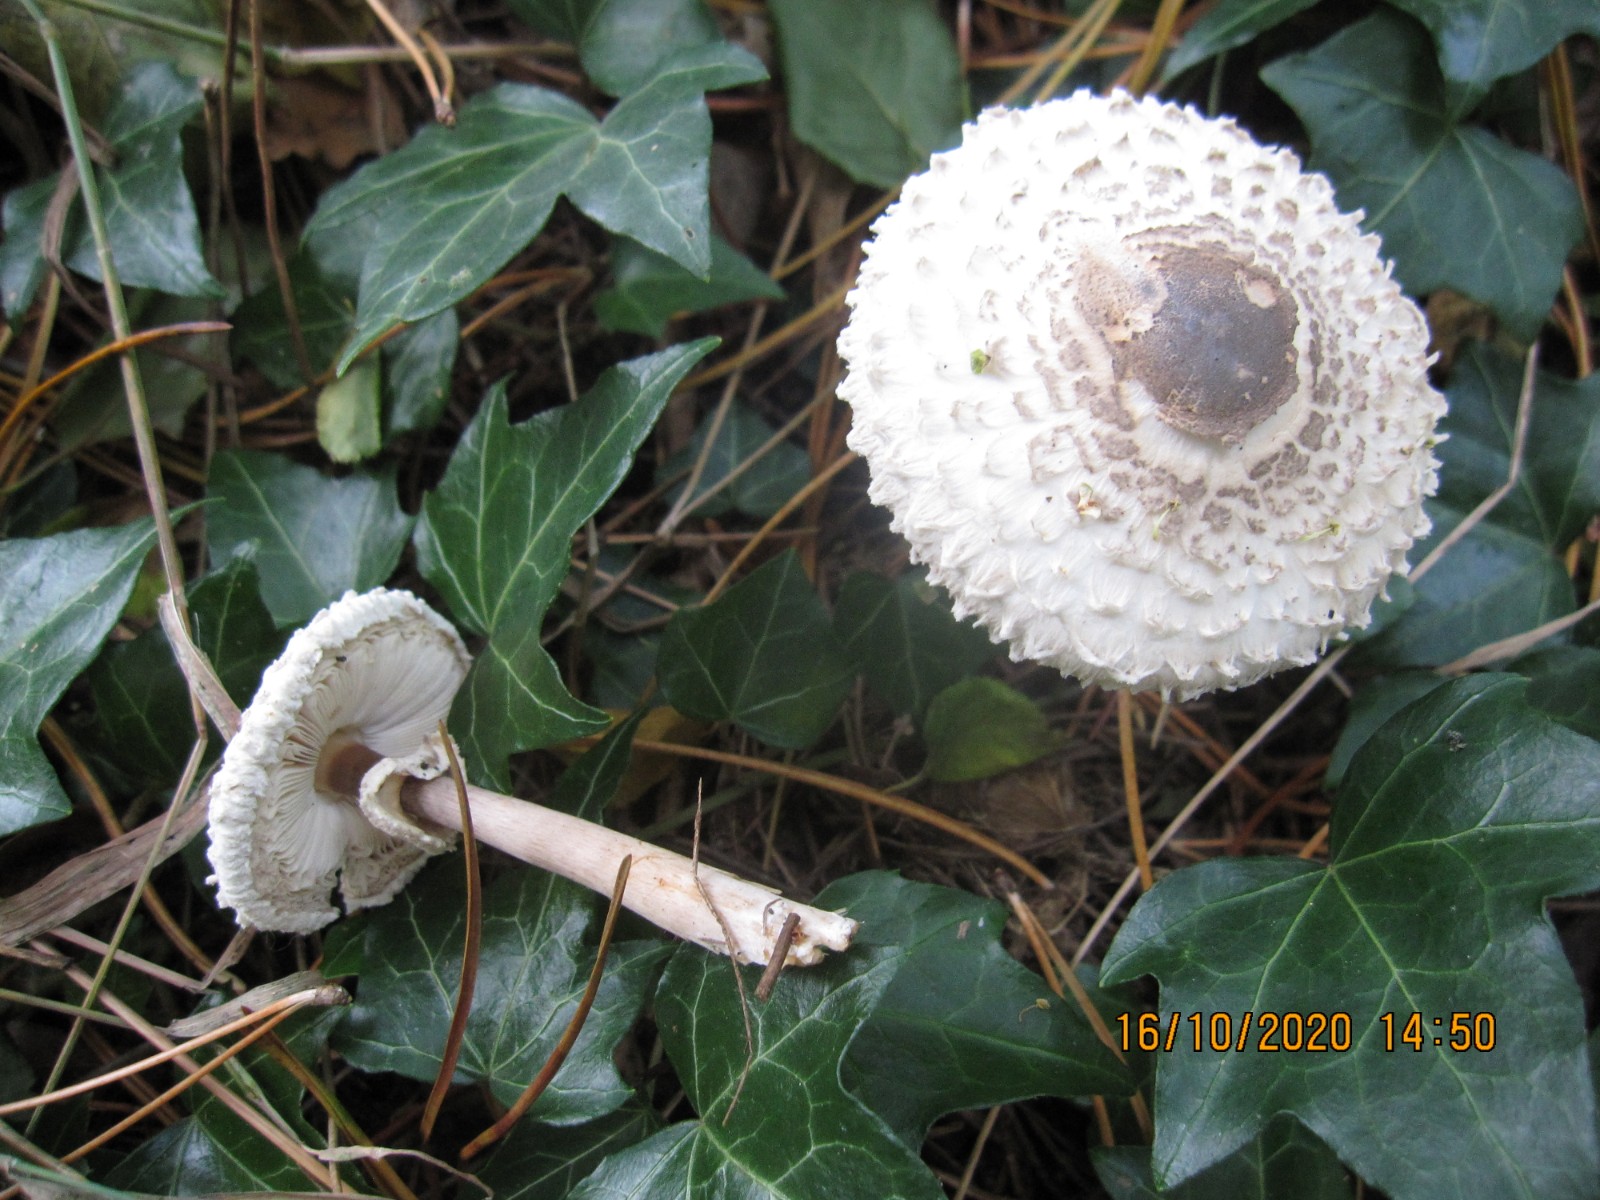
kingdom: Fungi
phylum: Basidiomycota
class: Agaricomycetes
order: Agaricales
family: Agaricaceae
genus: Leucoagaricus
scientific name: Leucoagaricus nympharum
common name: gran-silkehat
